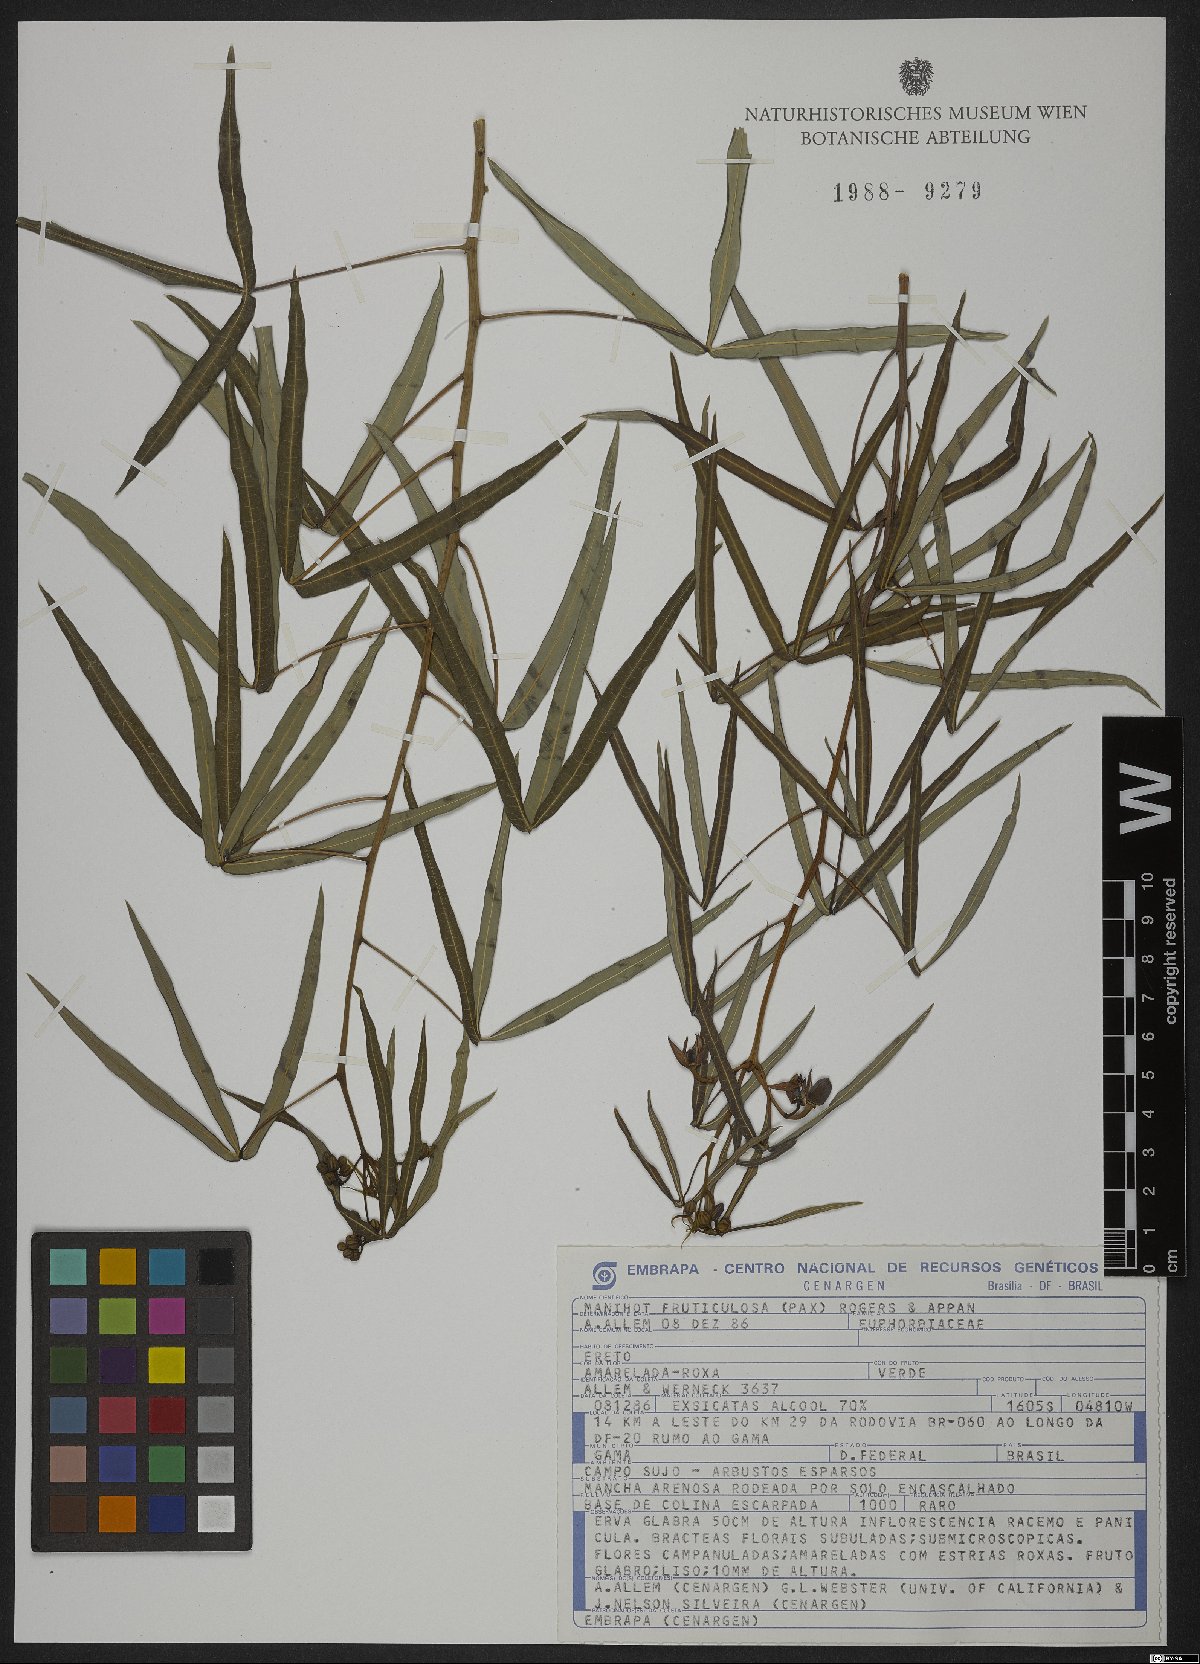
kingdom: Plantae
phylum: Tracheophyta
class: Magnoliopsida
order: Malpighiales
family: Euphorbiaceae
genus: Manihot
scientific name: Manihot fruticulosa
